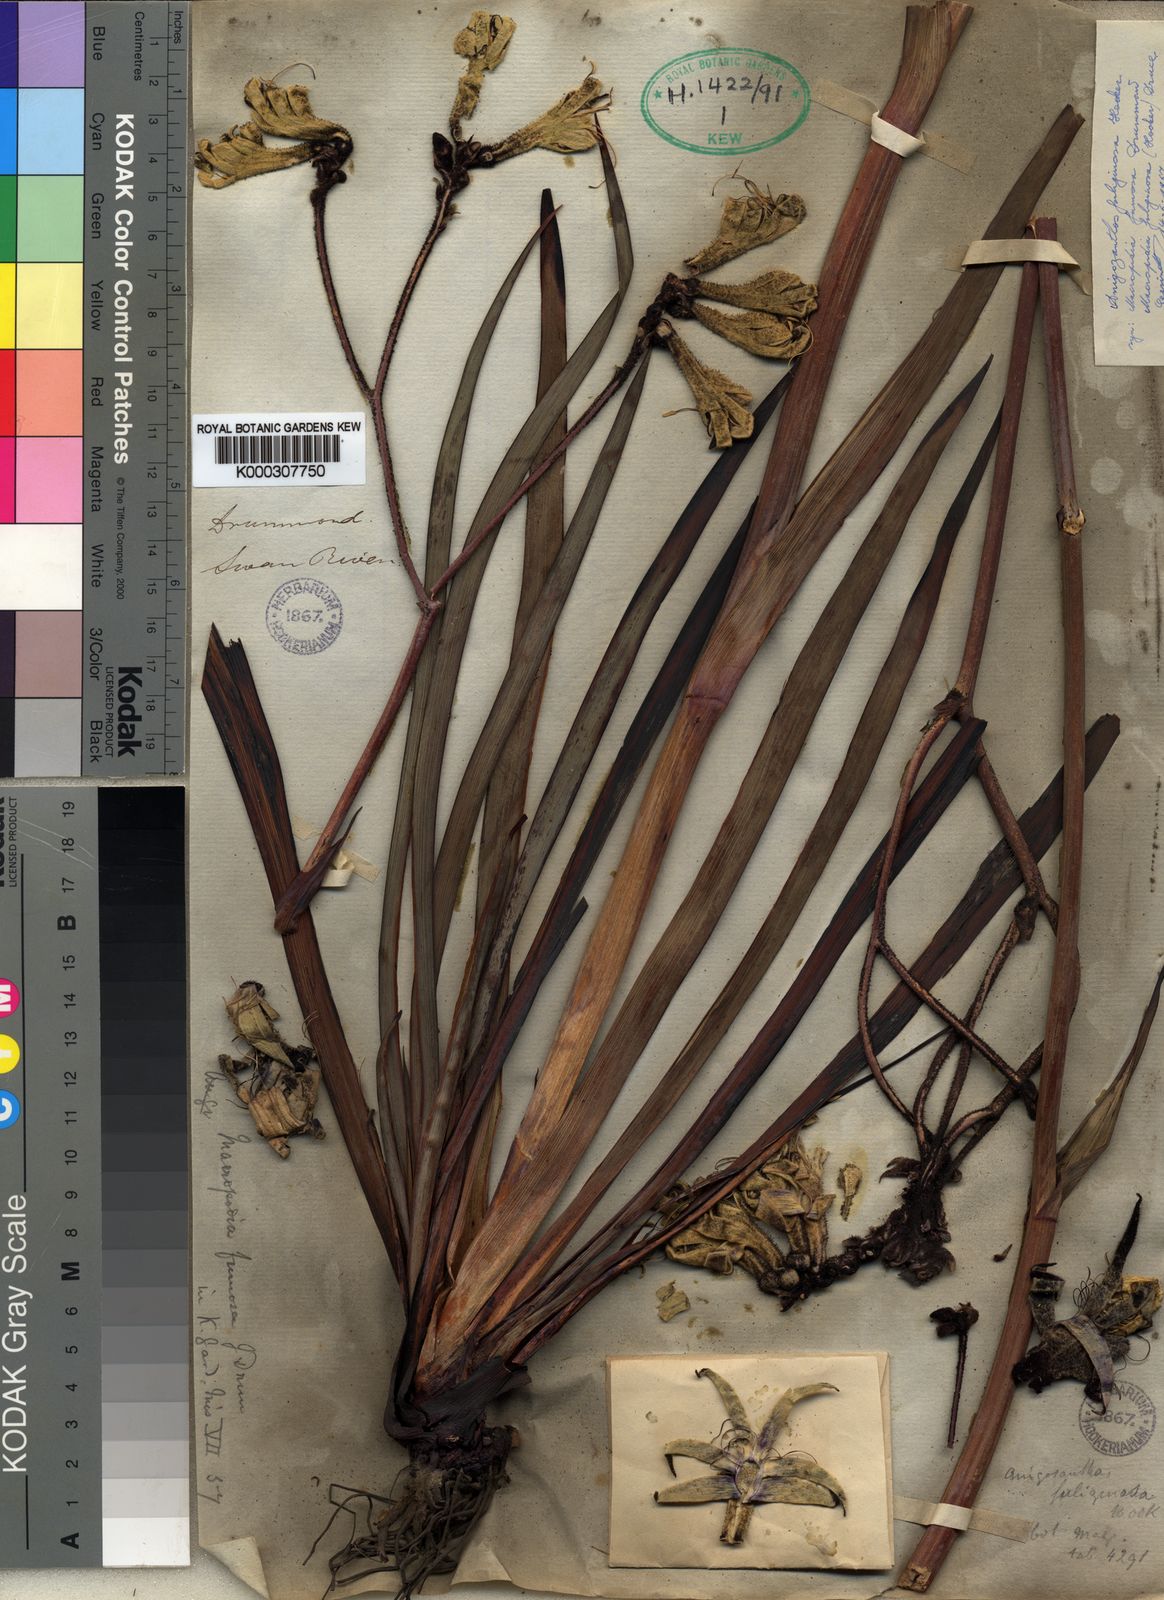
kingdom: Plantae
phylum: Tracheophyta
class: Liliopsida
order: Commelinales
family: Haemodoraceae
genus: Macropidia
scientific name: Macropidia fuliginosa
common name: Black kangaroo-paw
